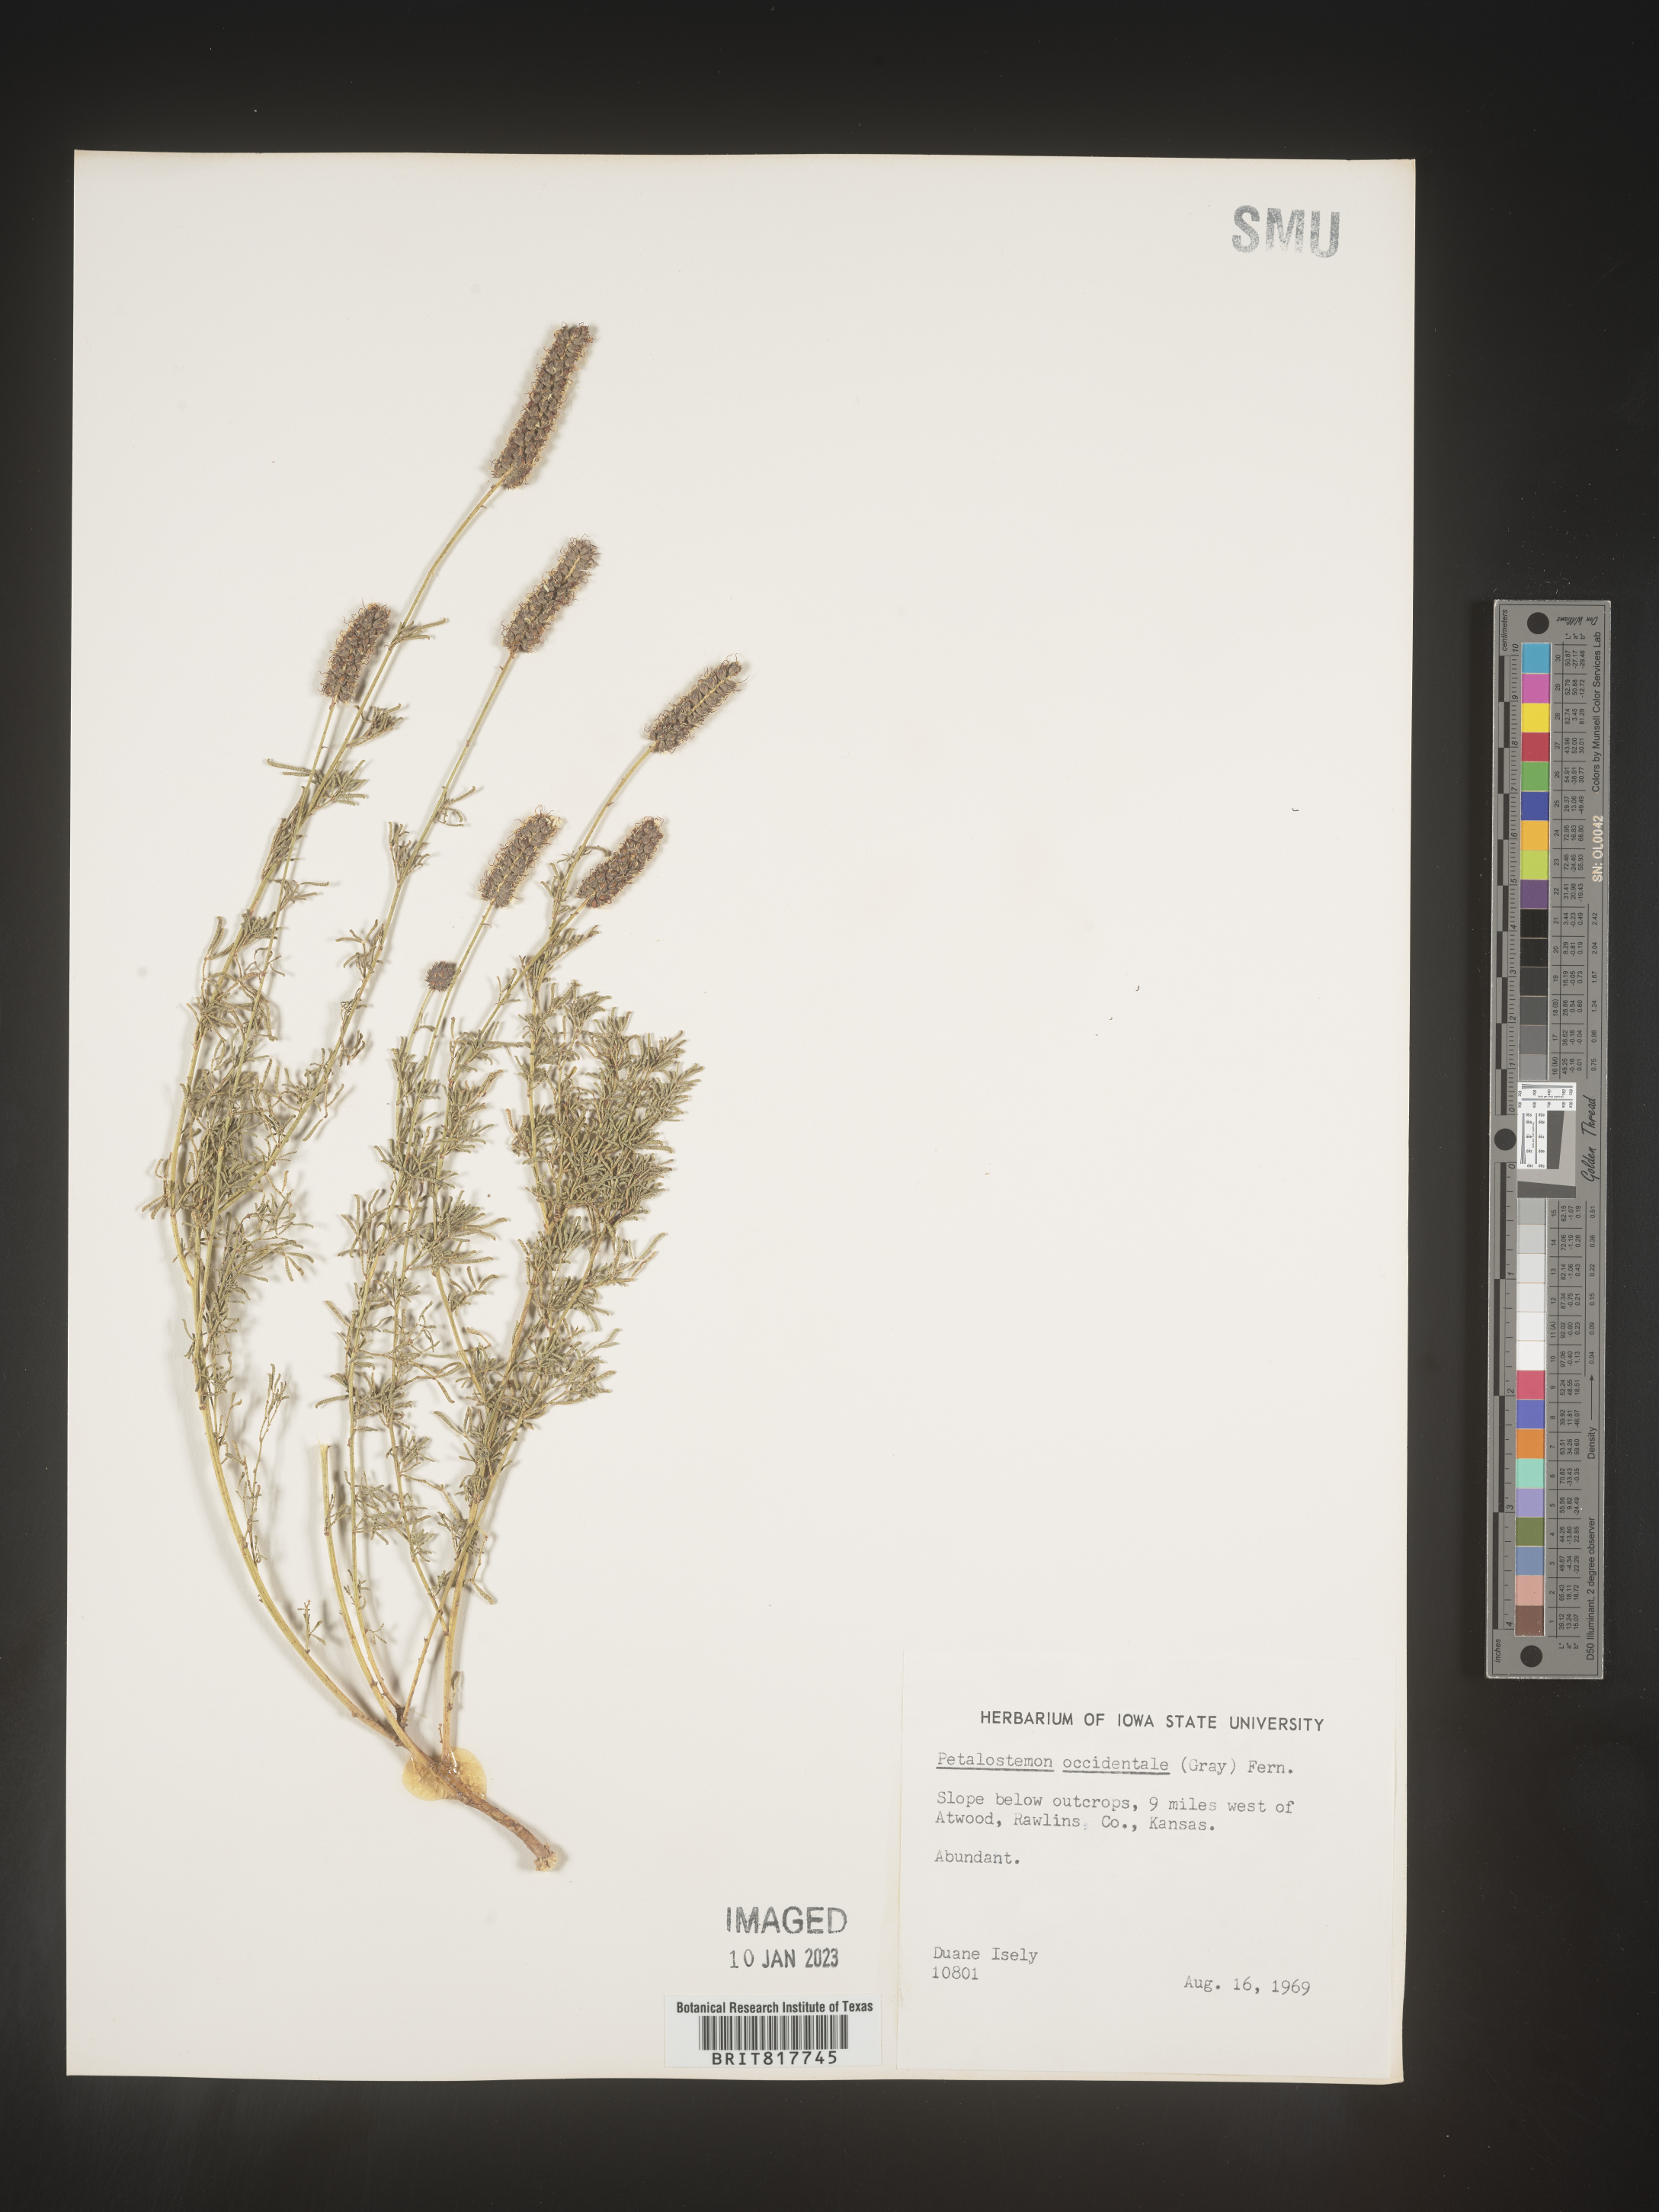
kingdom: Plantae
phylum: Tracheophyta
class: Magnoliopsida
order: Fabales
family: Fabaceae
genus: Dalea
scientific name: Dalea scandens
